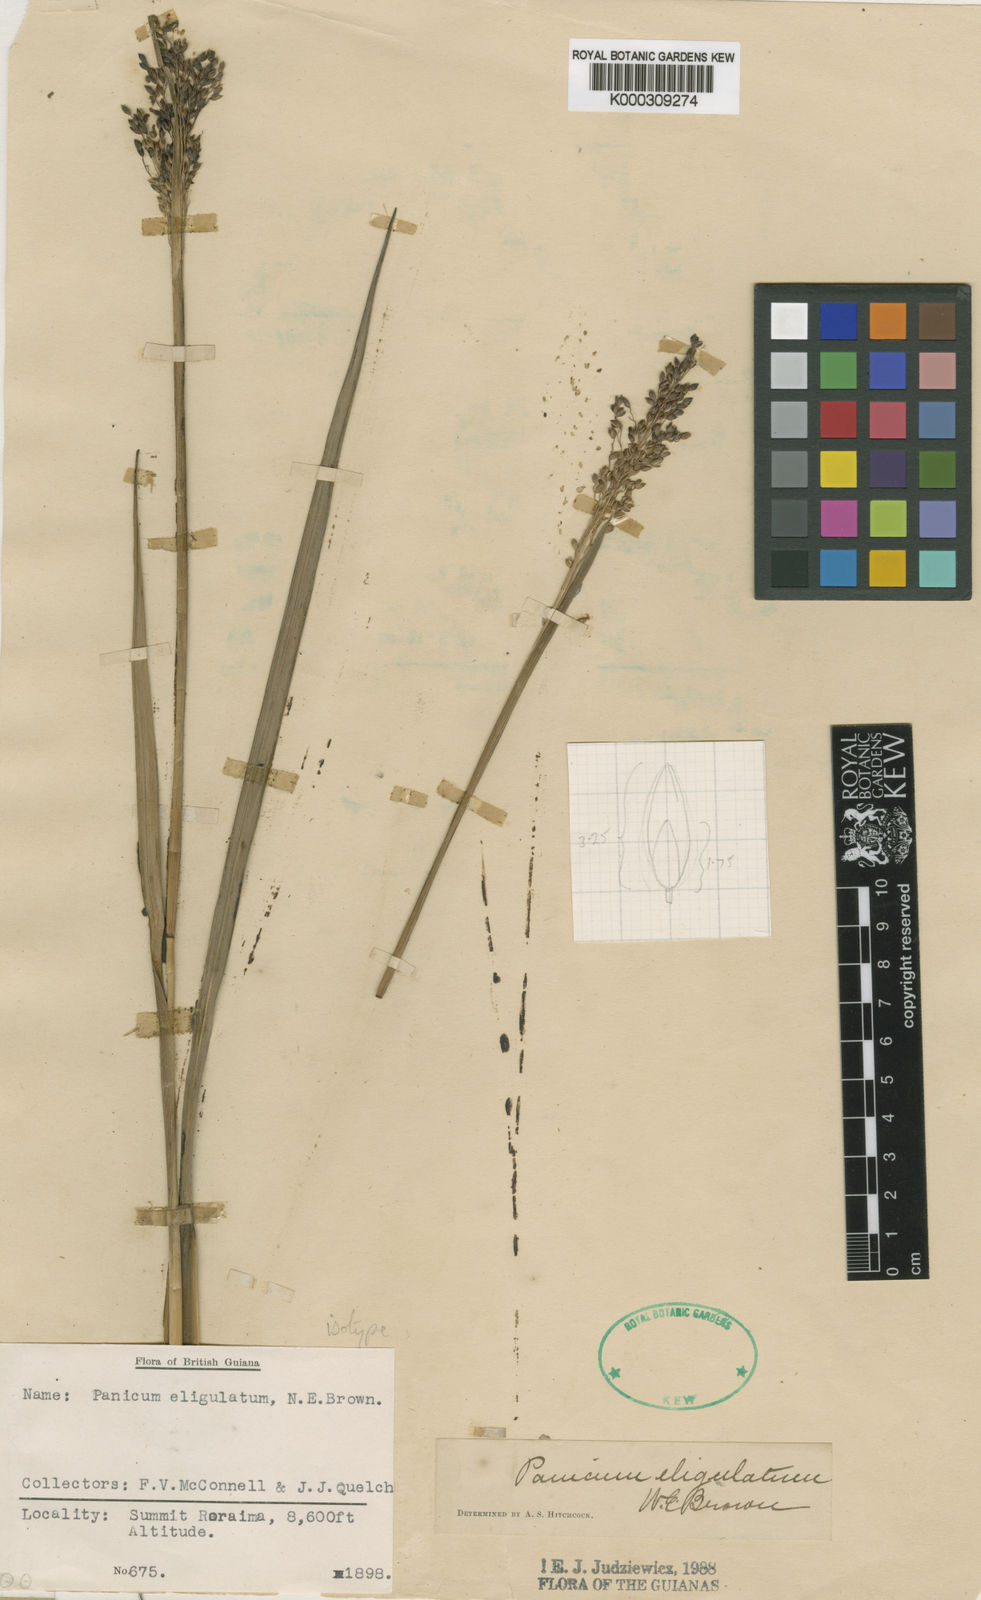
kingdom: Plantae
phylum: Tracheophyta
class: Liliopsida
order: Poales
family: Poaceae
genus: Panicum
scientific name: Panicum
